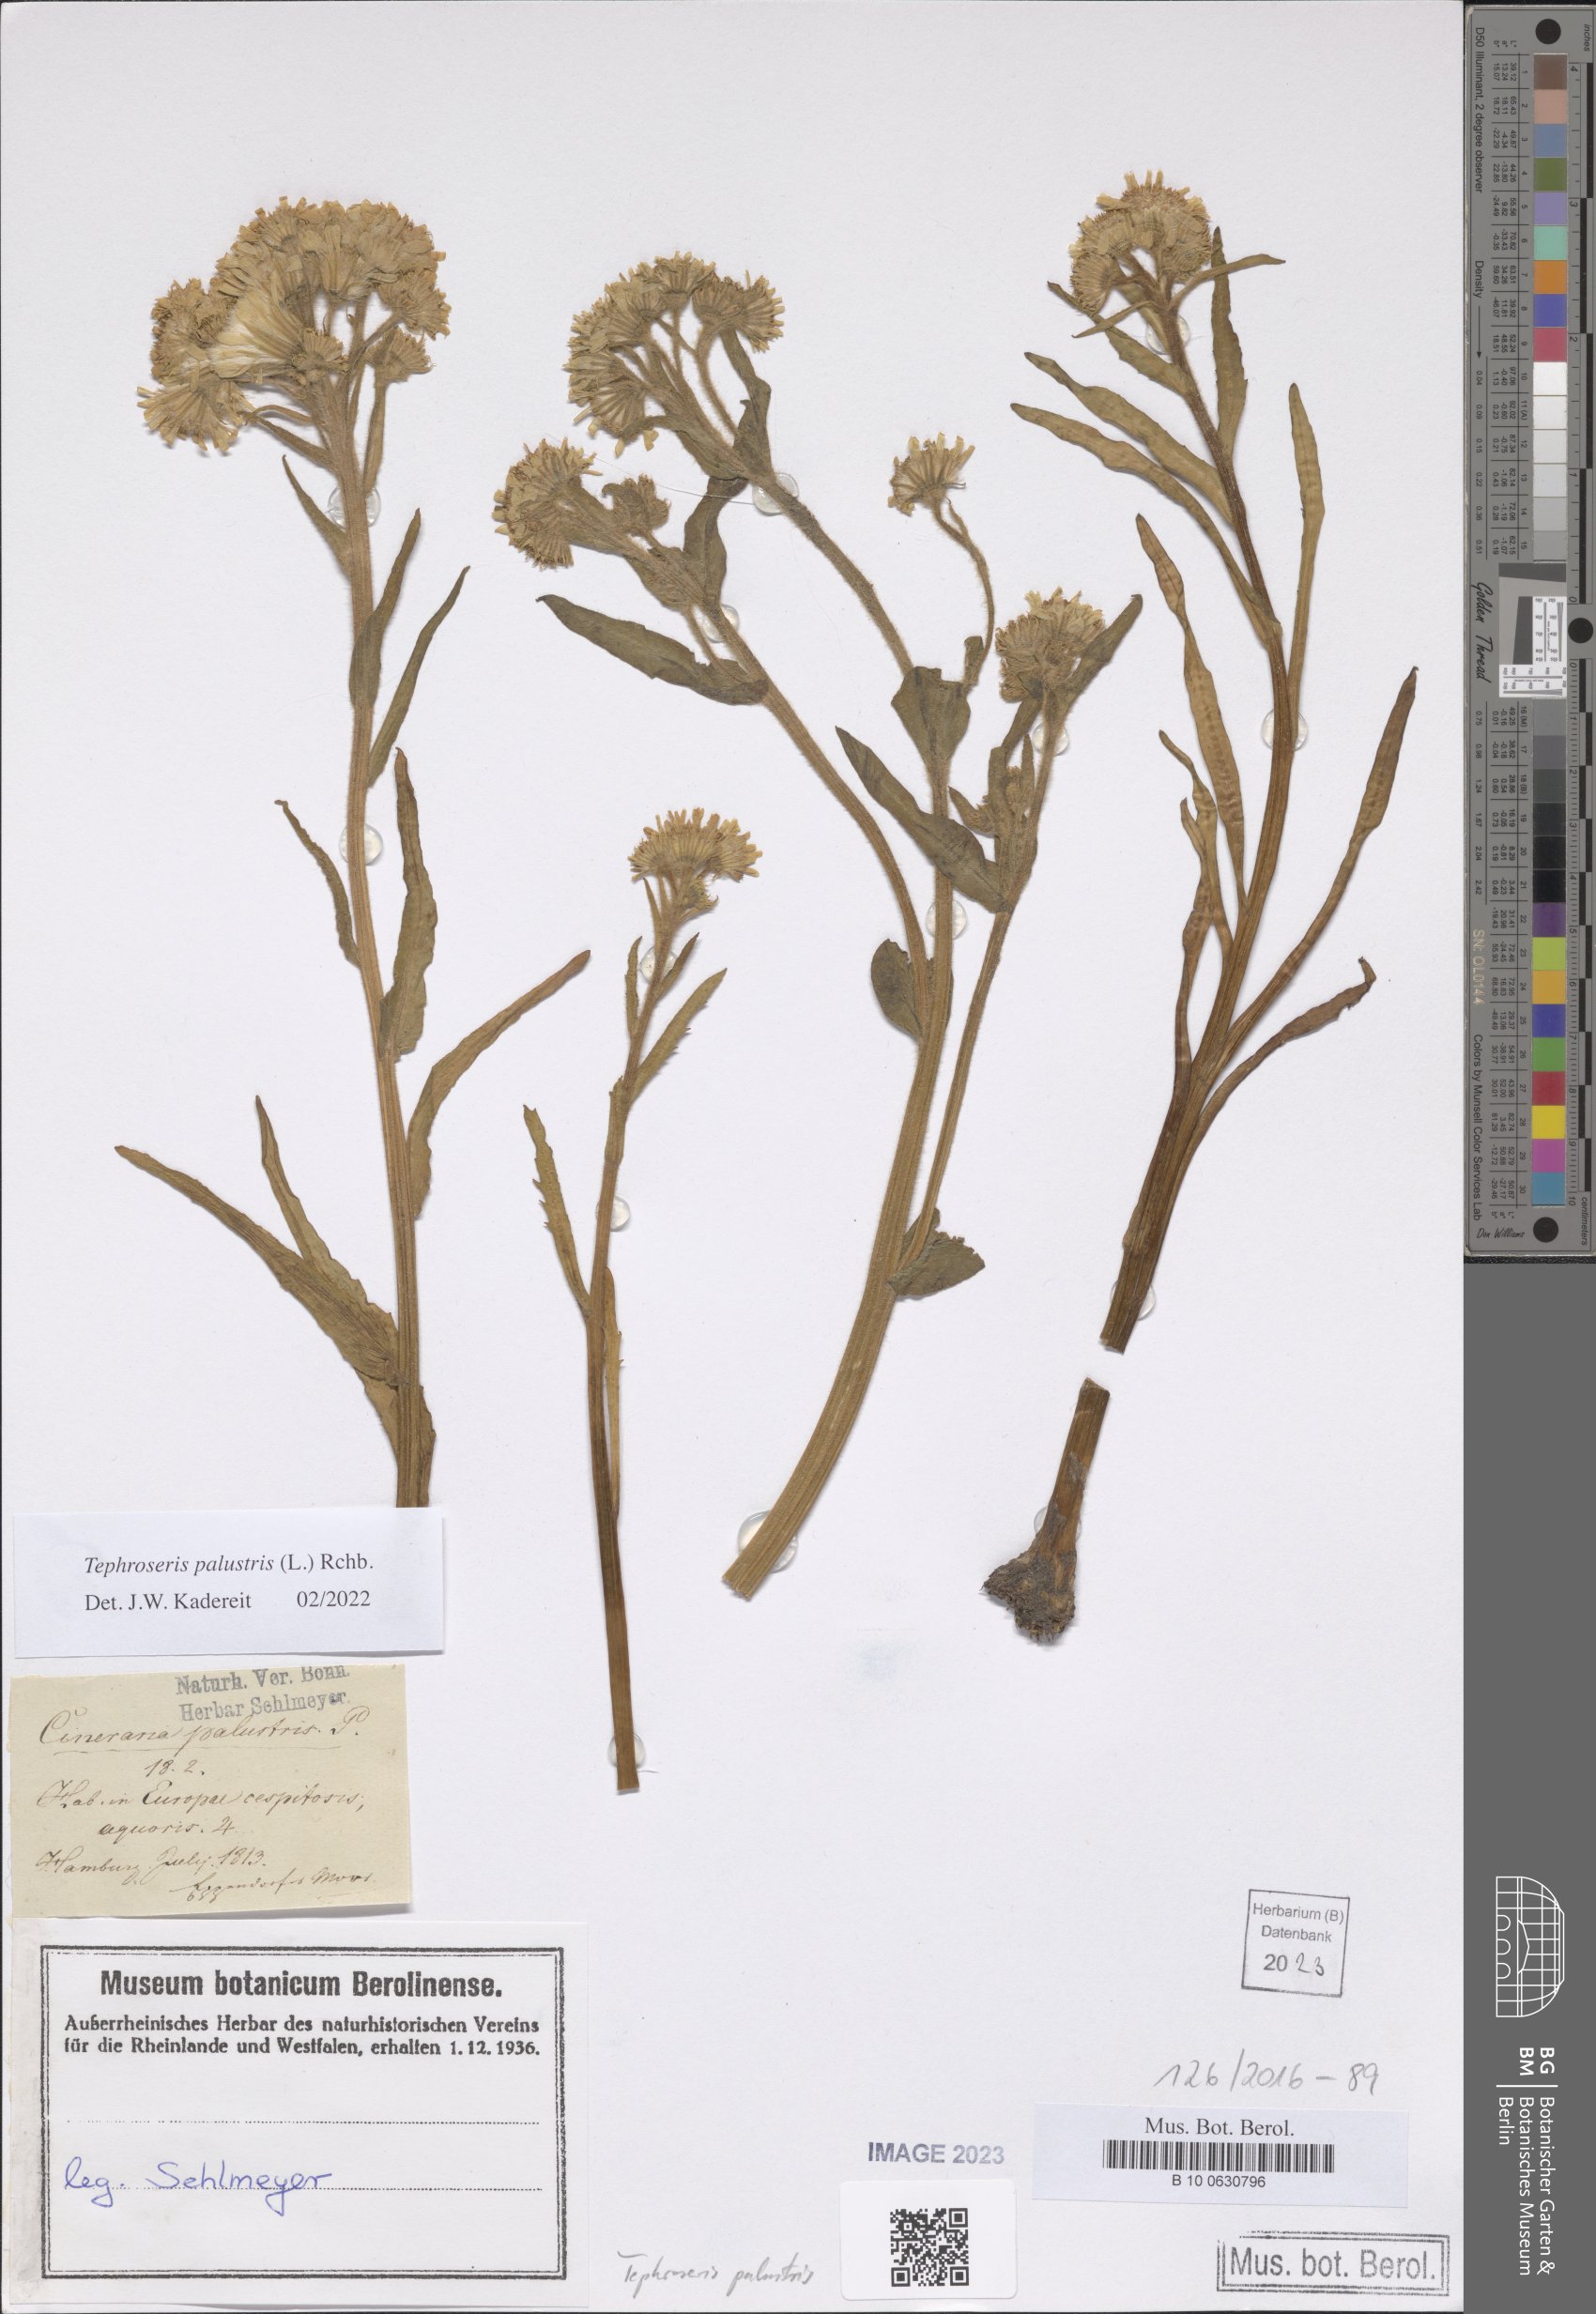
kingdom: Plantae
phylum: Tracheophyta
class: Magnoliopsida
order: Asterales
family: Asteraceae
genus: Tephroseris
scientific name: Tephroseris palustris
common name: Marsh fleawort
